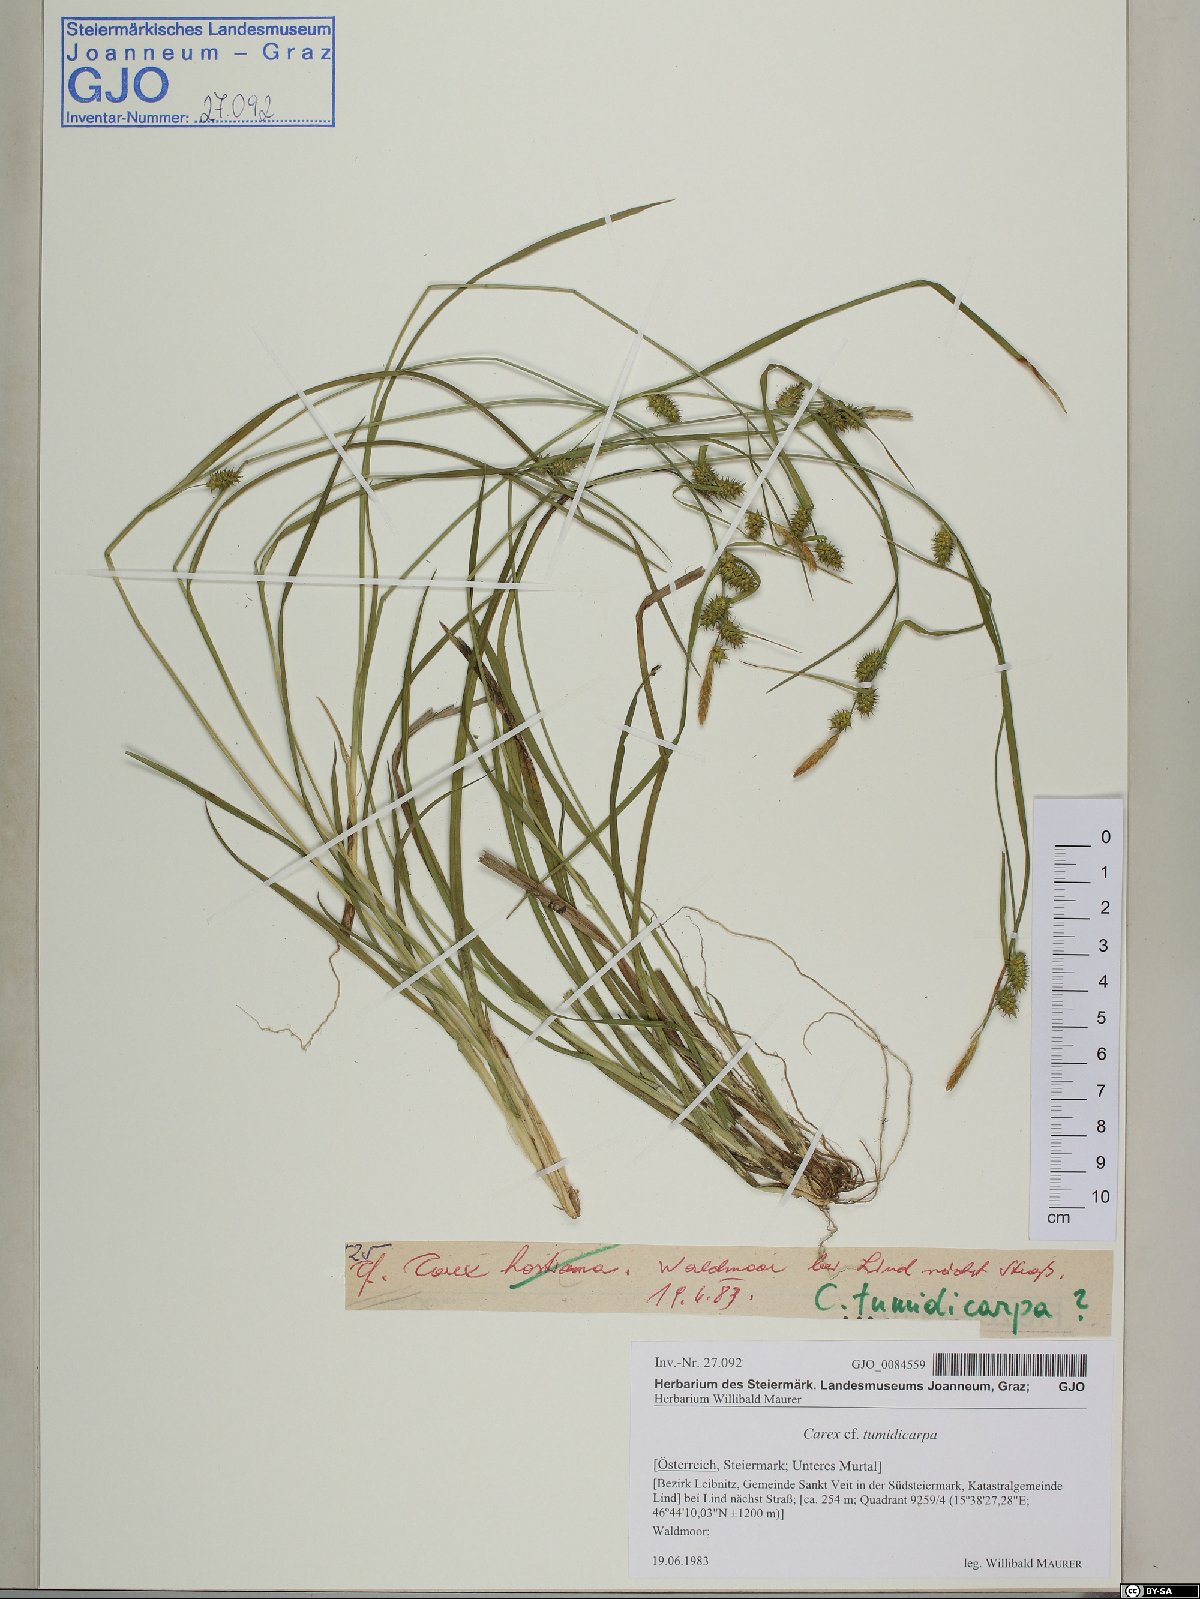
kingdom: Plantae
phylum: Tracheophyta
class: Liliopsida
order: Poales
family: Cyperaceae
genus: Carex
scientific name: Carex demissa
